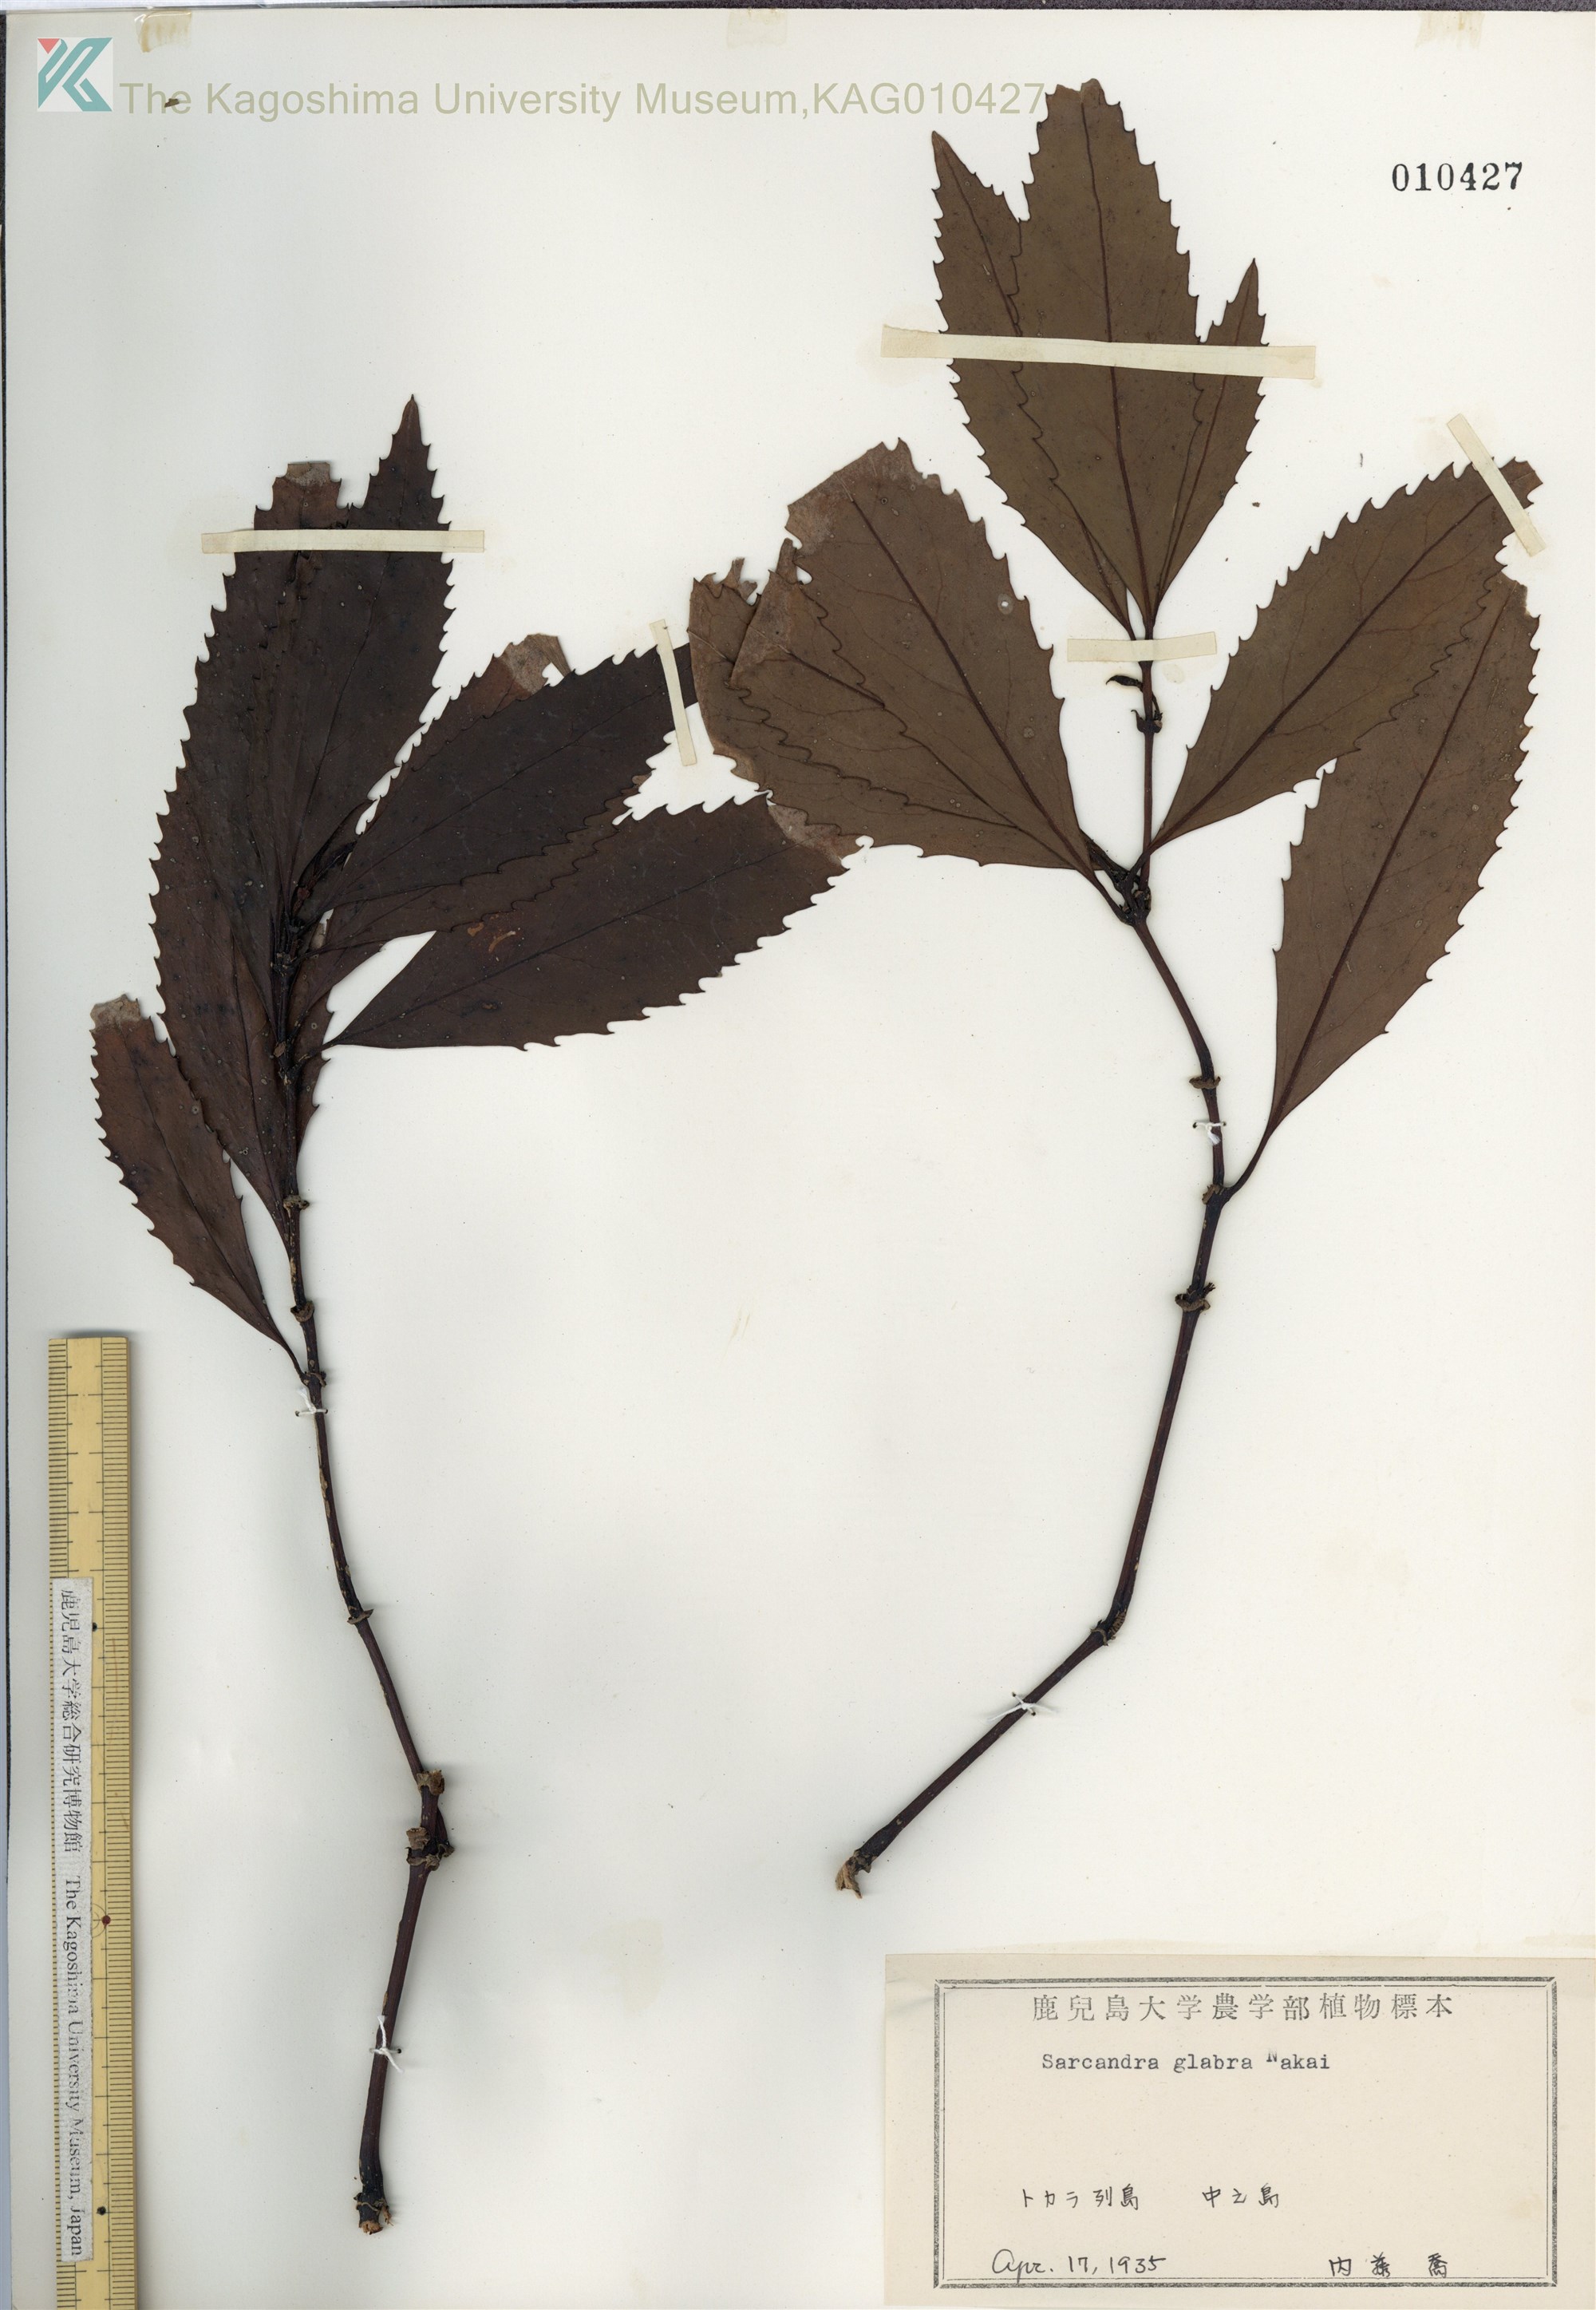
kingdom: Plantae
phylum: Tracheophyta
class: Magnoliopsida
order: Chloranthales
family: Chloranthaceae
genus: Sarcandra
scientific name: Sarcandra glabra
